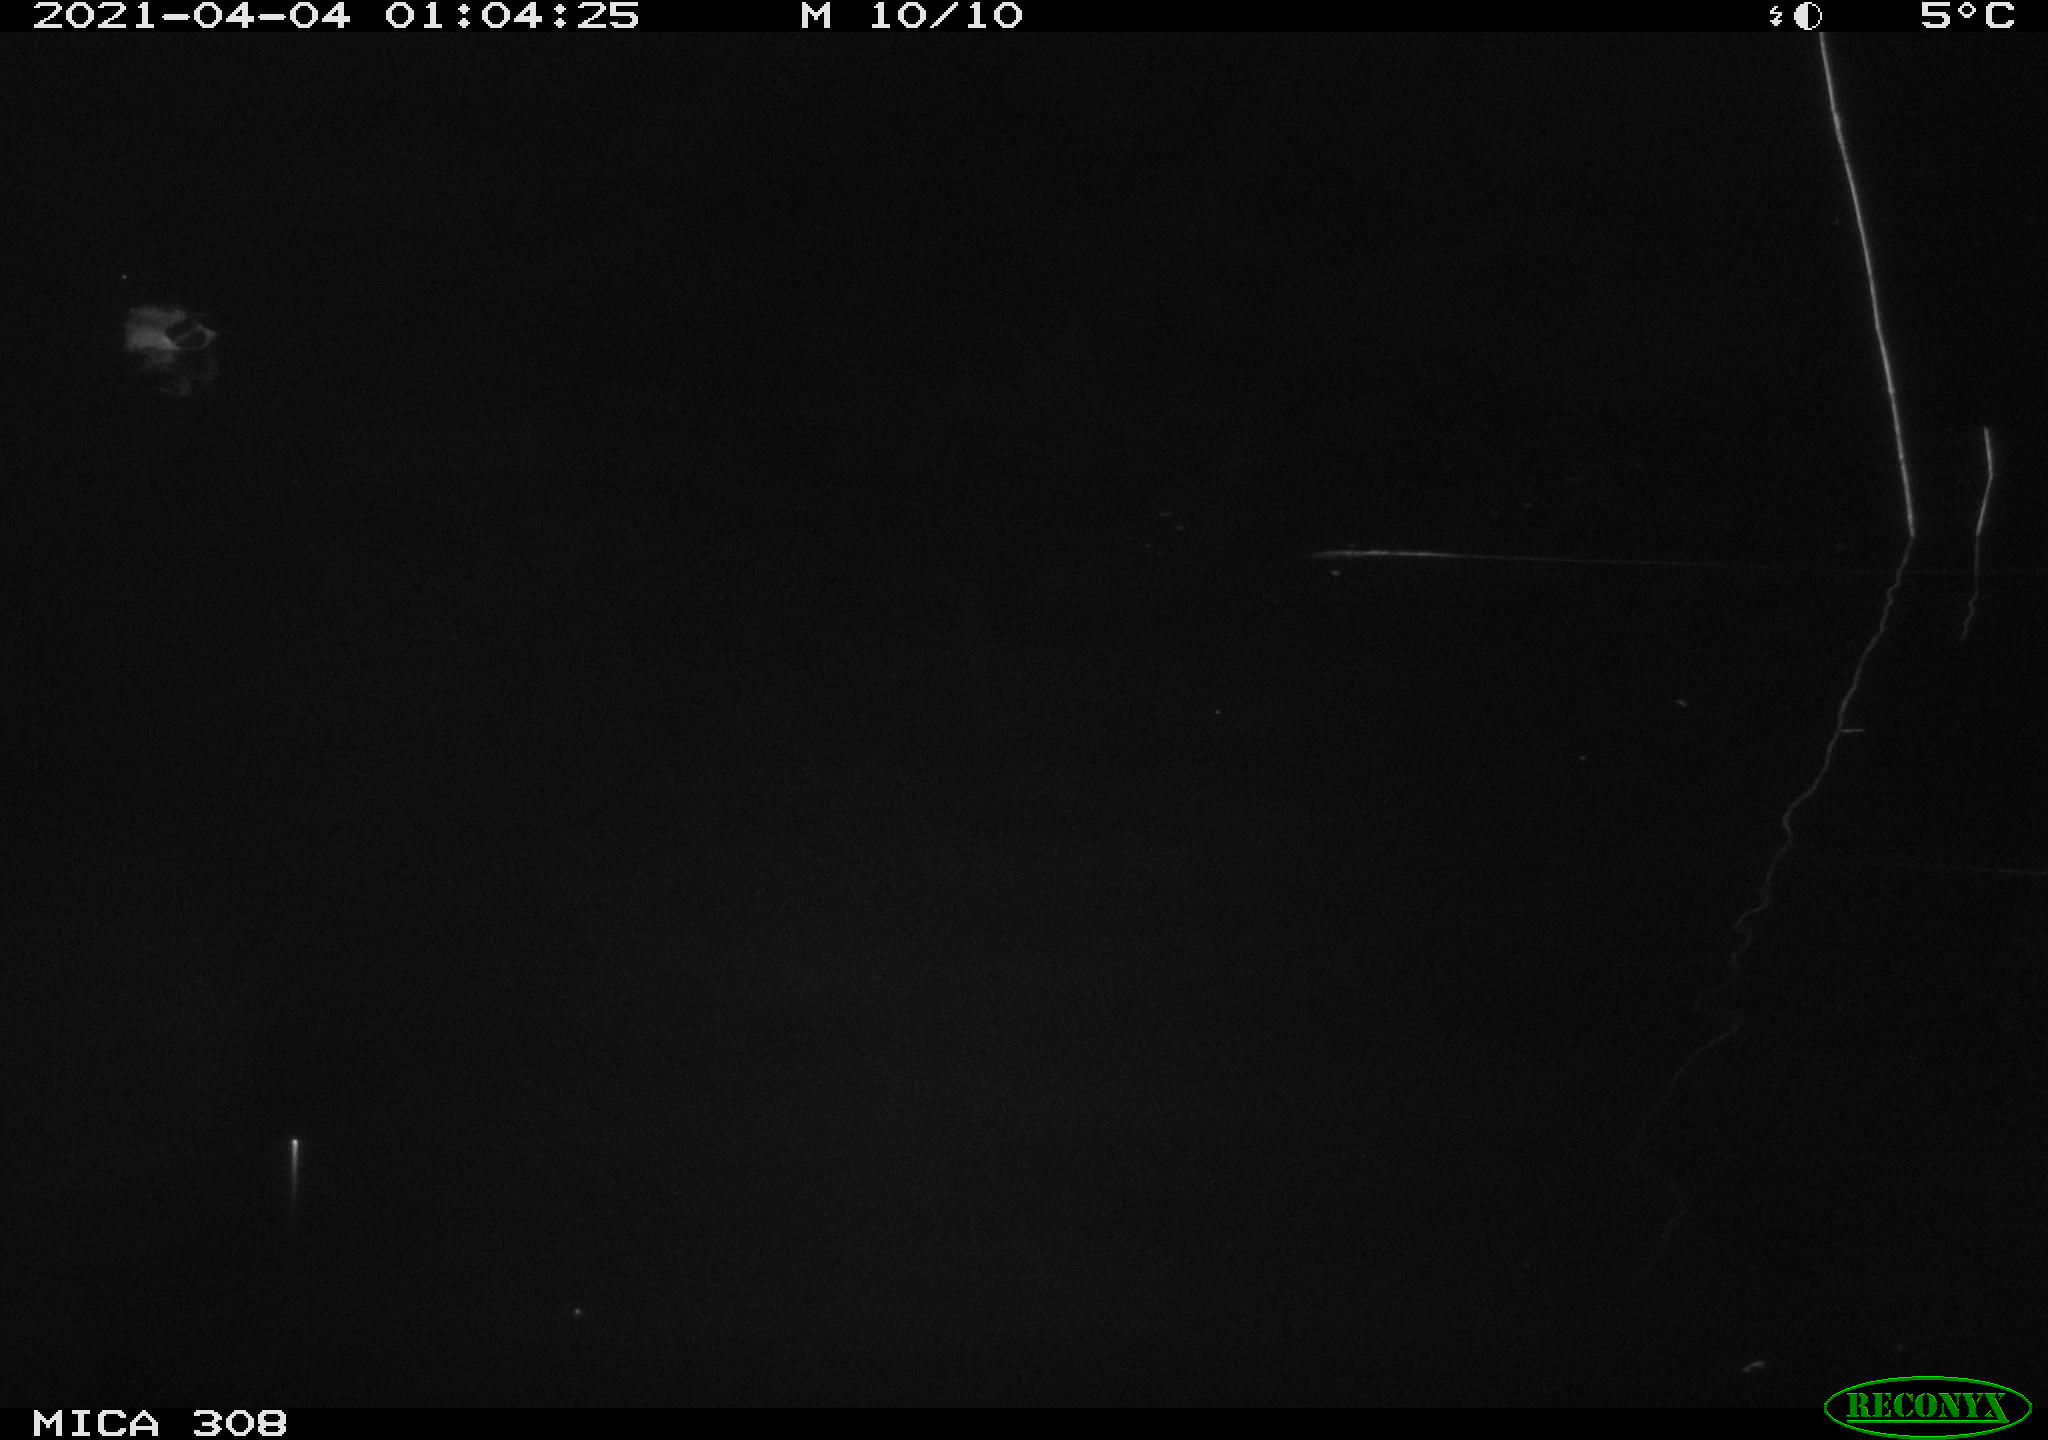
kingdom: Animalia
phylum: Chordata
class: Aves
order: Anseriformes
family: Anatidae
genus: Anas
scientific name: Anas platyrhynchos
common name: Mallard
